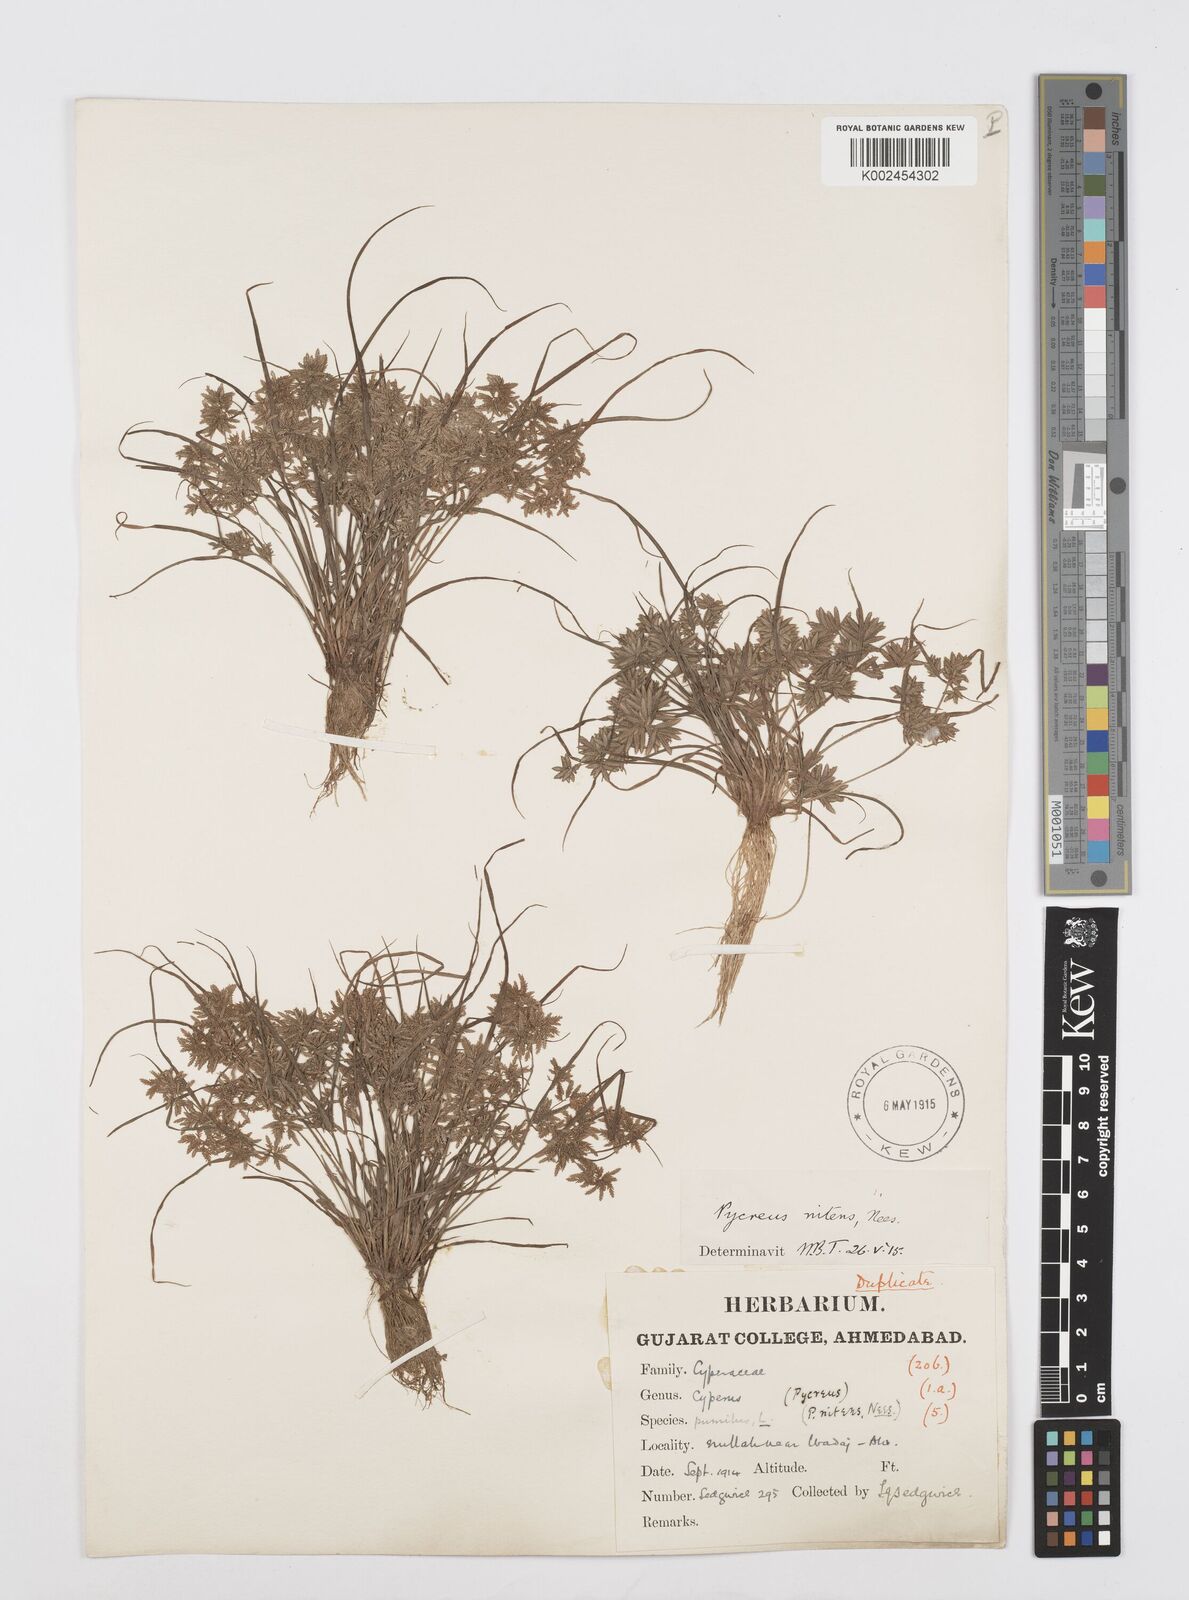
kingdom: Plantae
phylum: Tracheophyta
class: Liliopsida
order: Poales
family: Cyperaceae
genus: Cyperus
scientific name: Cyperus pumilus
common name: Low flatsedge
